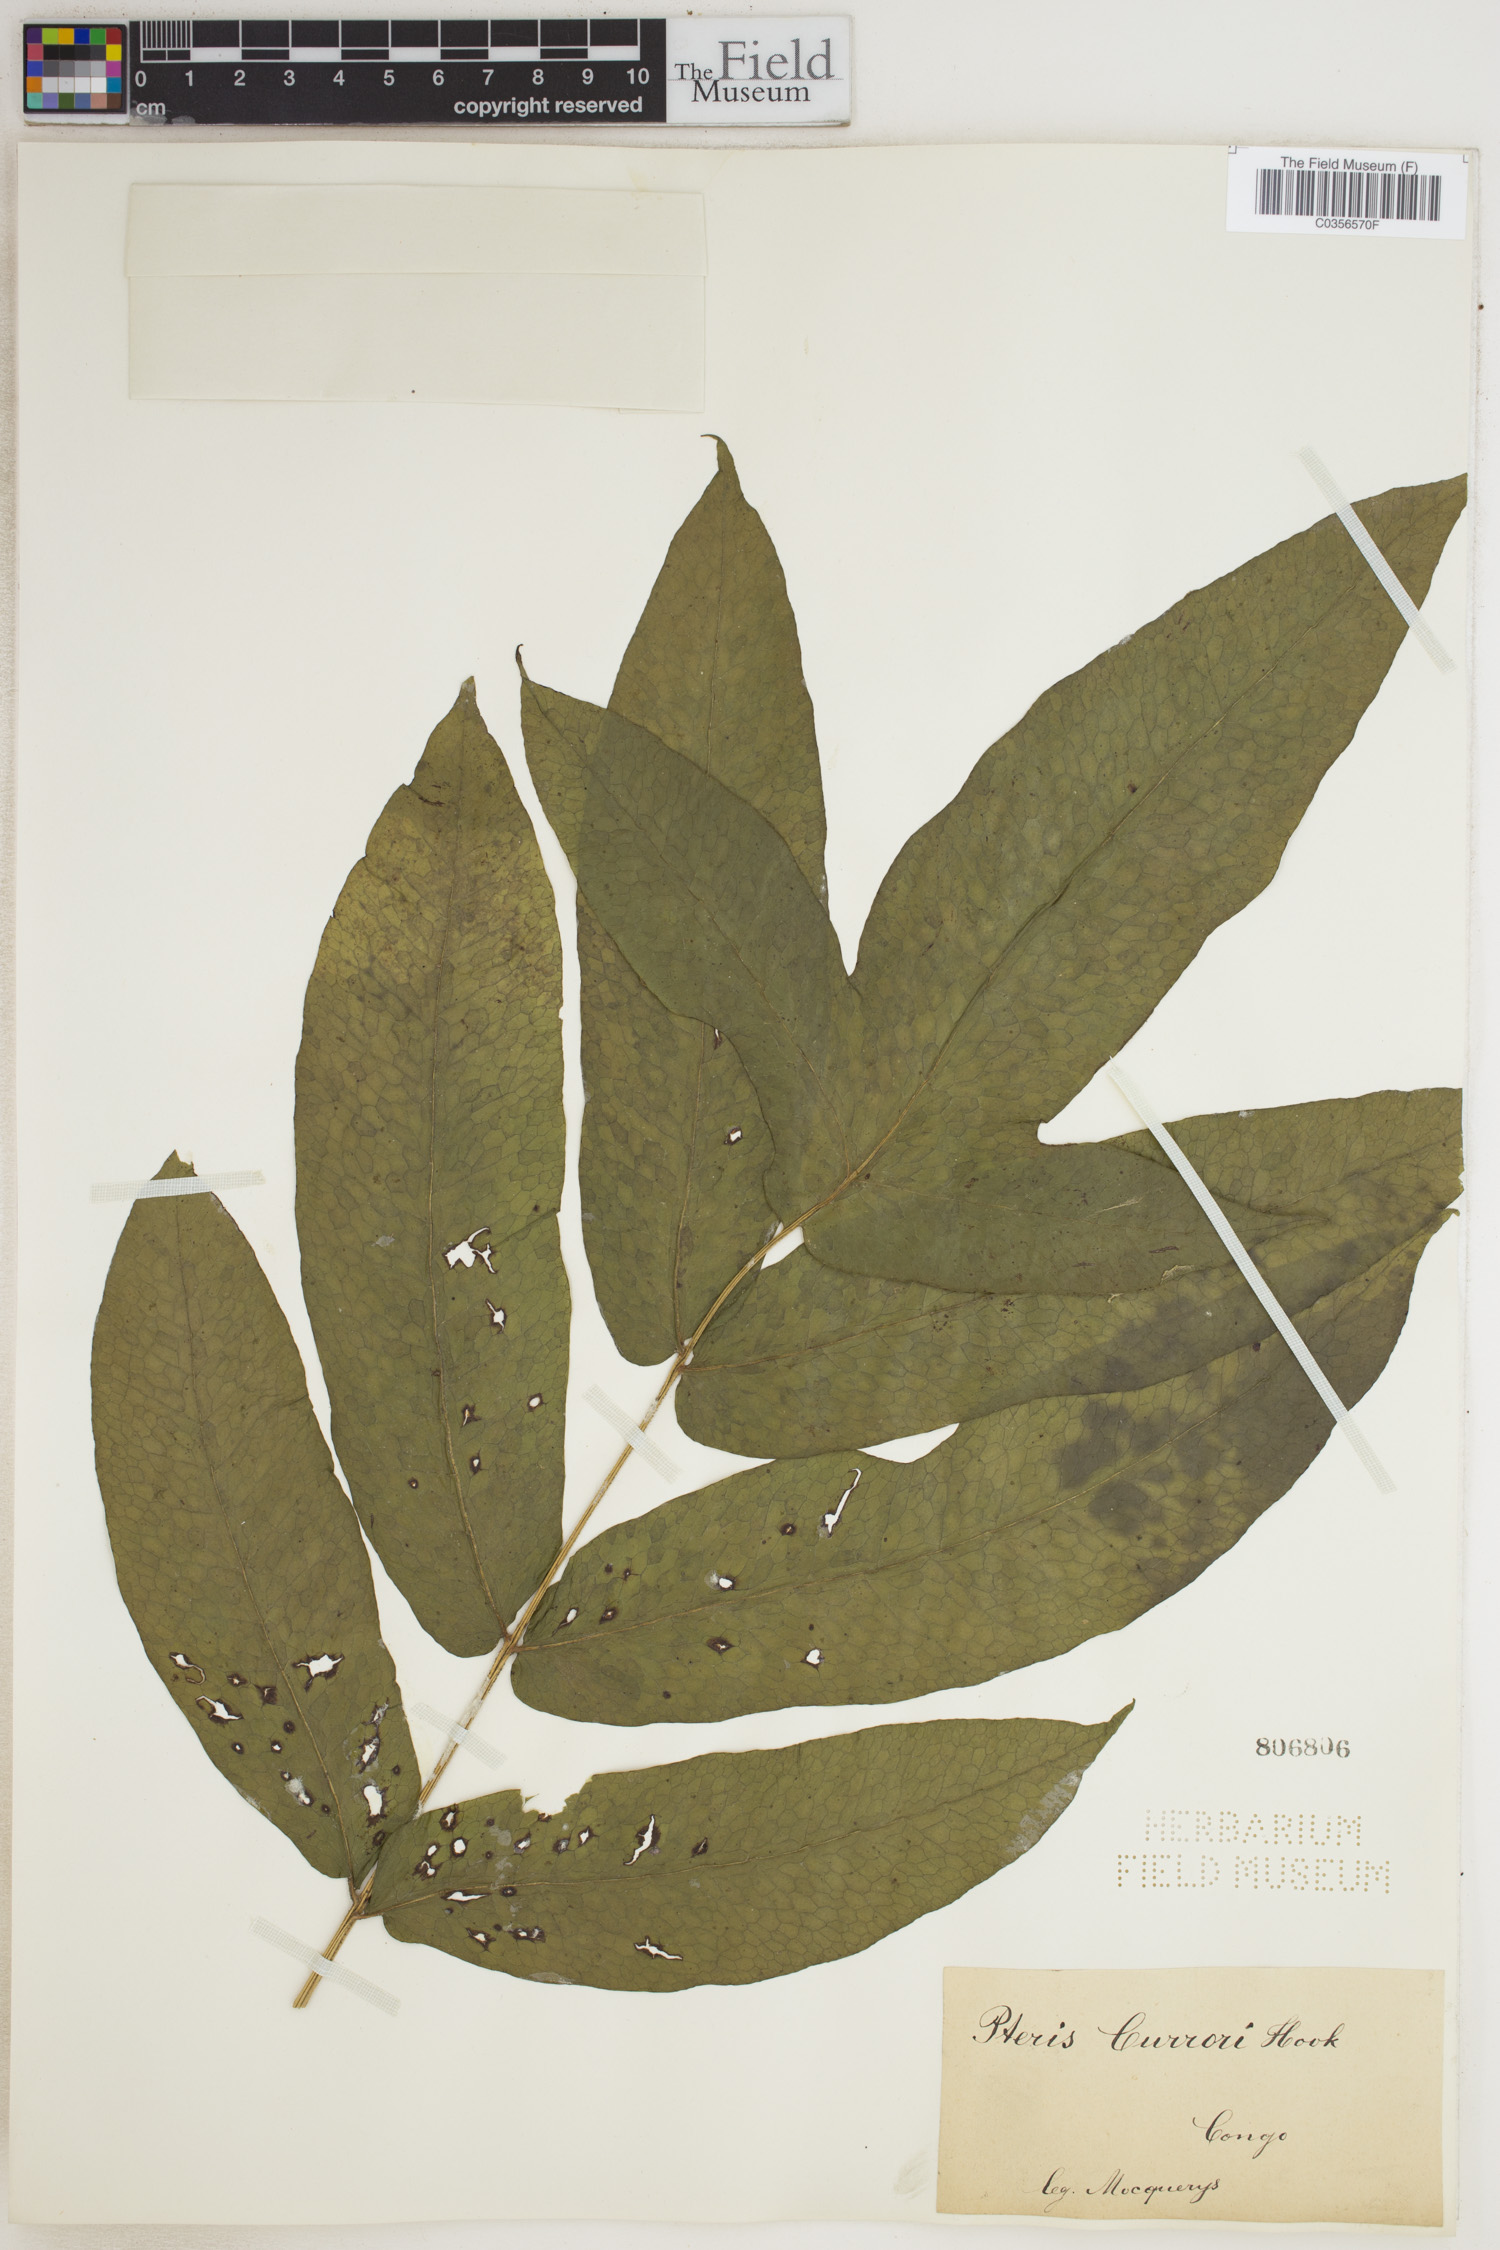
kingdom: Plantae
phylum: Tracheophyta
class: Polypodiopsida
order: Polypodiales
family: Dennstaedtiaceae
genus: Blotiella
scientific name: Blotiella currorii
